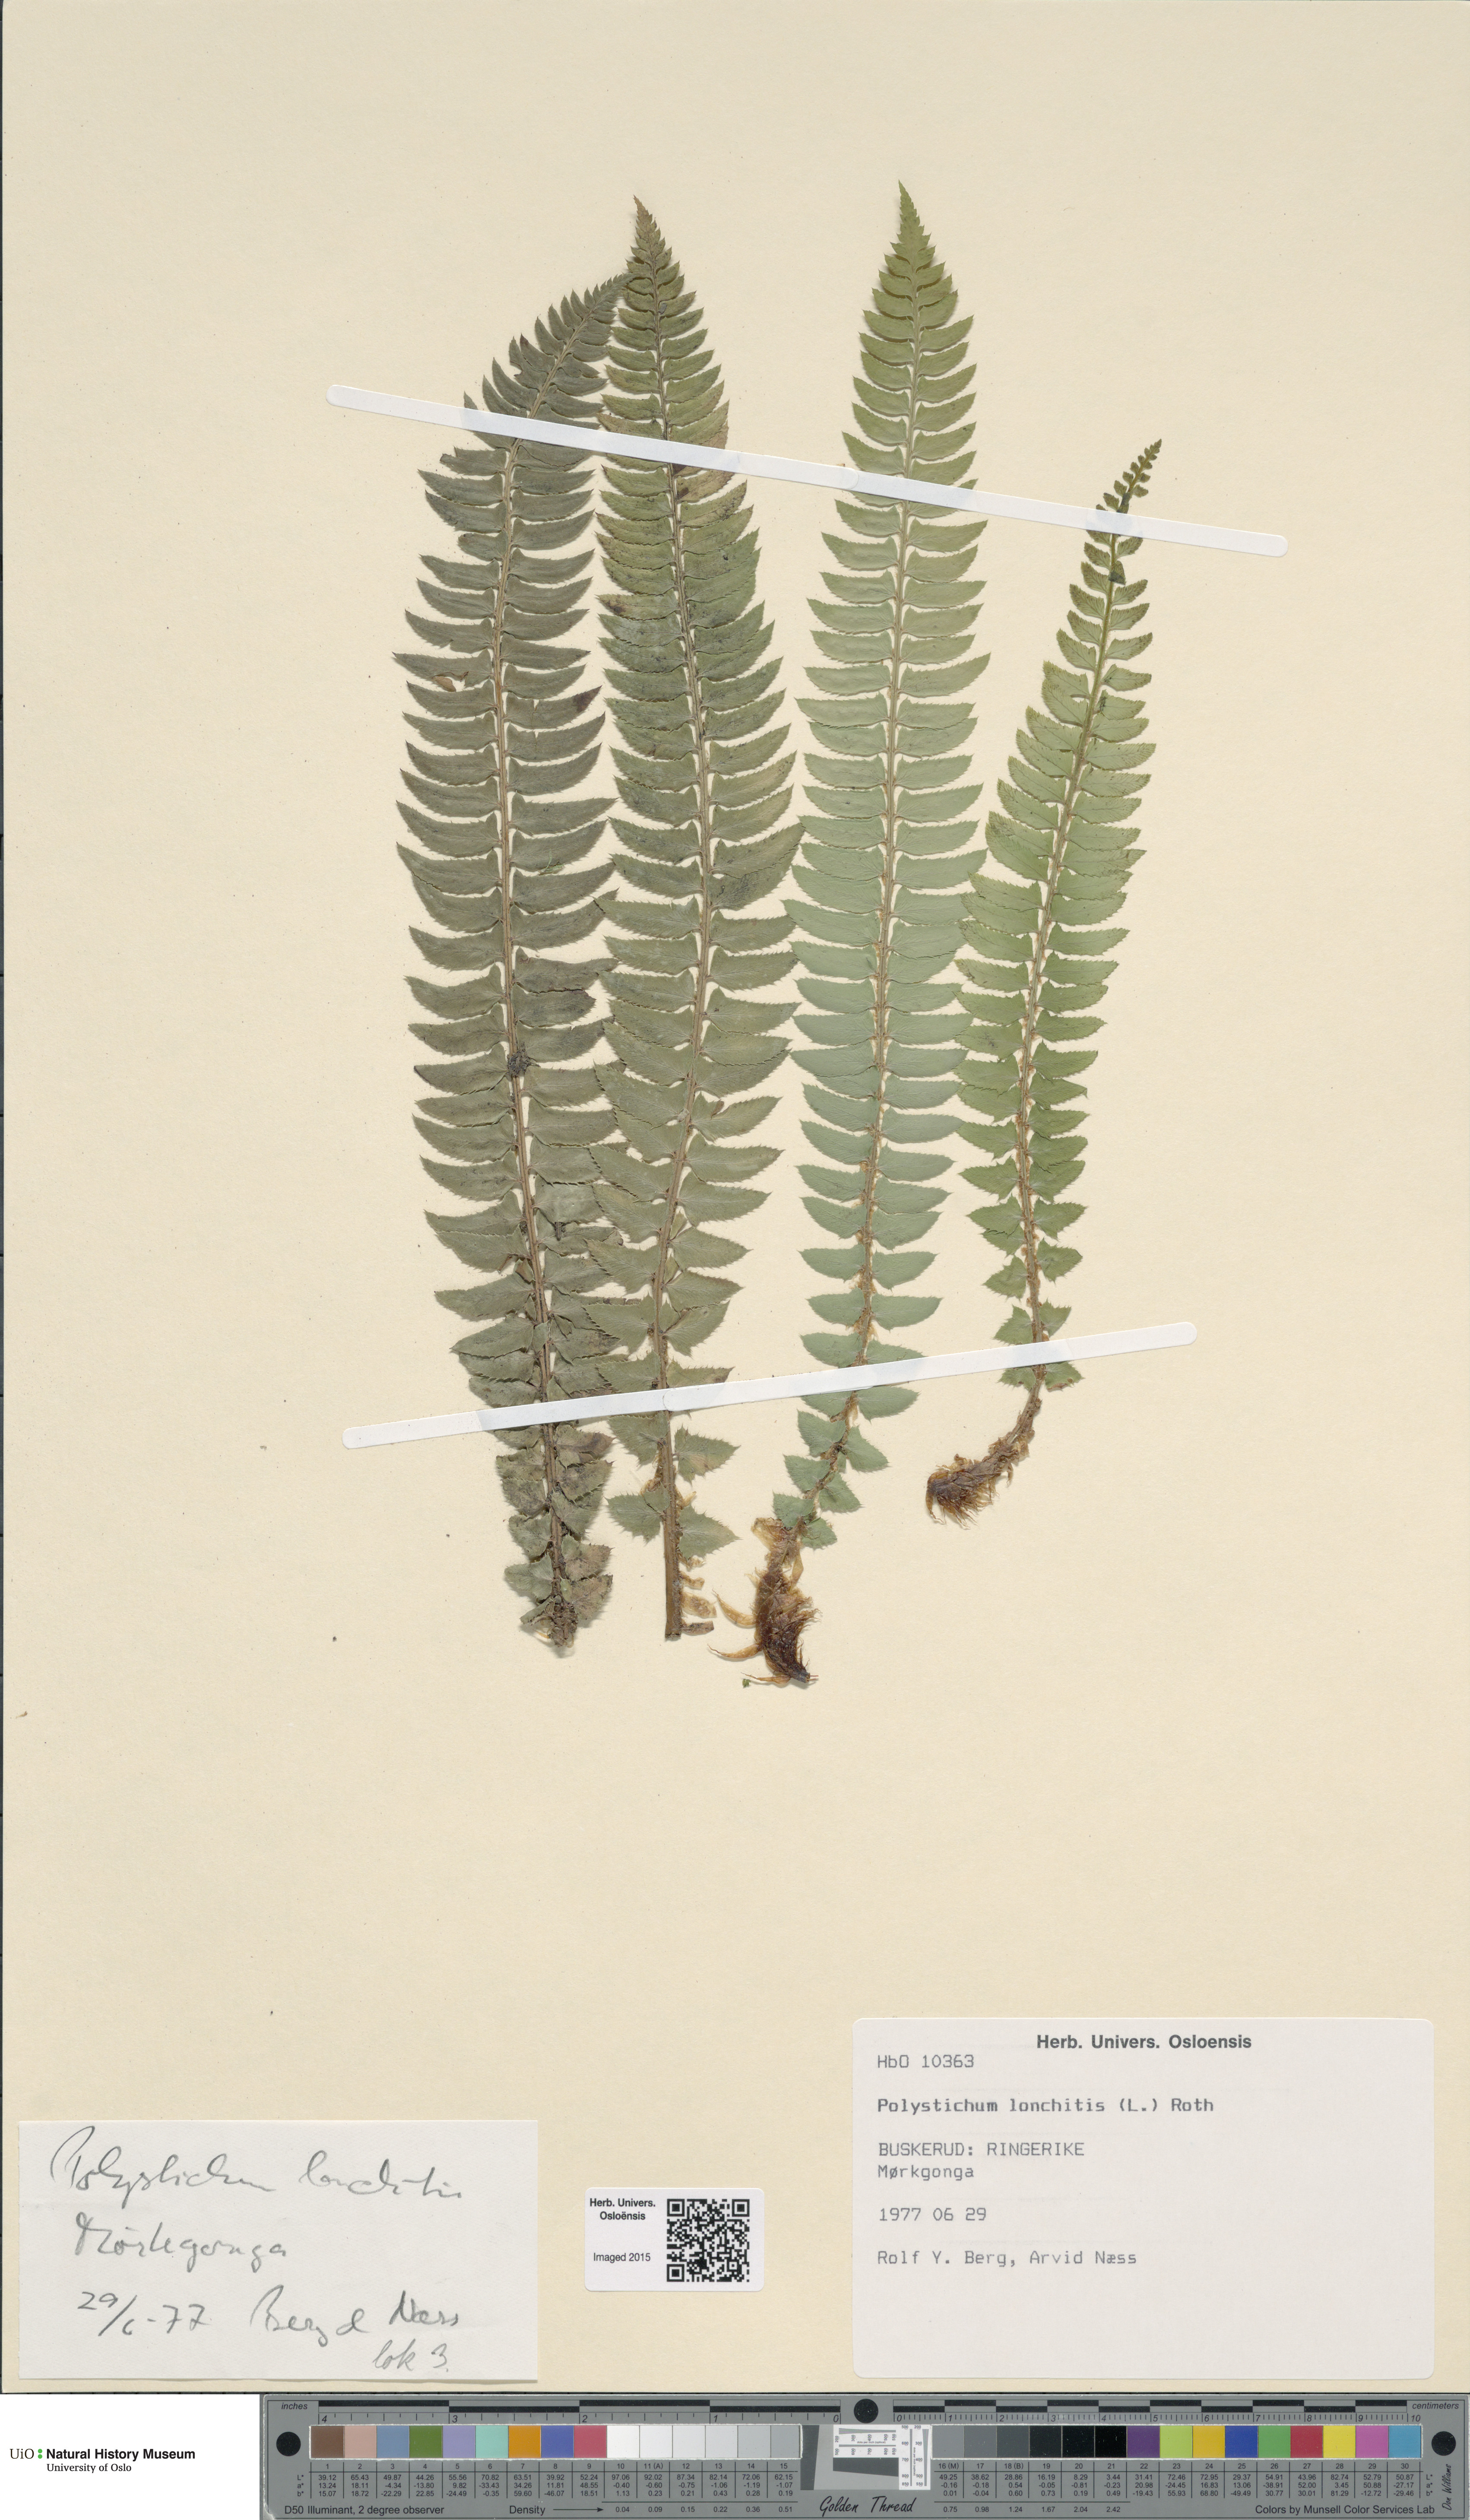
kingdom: Plantae
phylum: Tracheophyta
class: Polypodiopsida
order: Polypodiales
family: Dryopteridaceae
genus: Polystichum
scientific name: Polystichum lonchitis
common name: Holly fern
